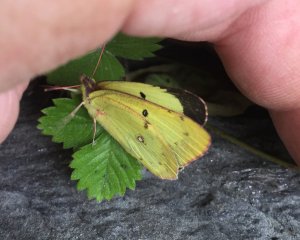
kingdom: Animalia
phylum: Arthropoda
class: Insecta
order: Lepidoptera
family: Pieridae
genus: Colias
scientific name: Colias philodice
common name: Clouded Sulphur
